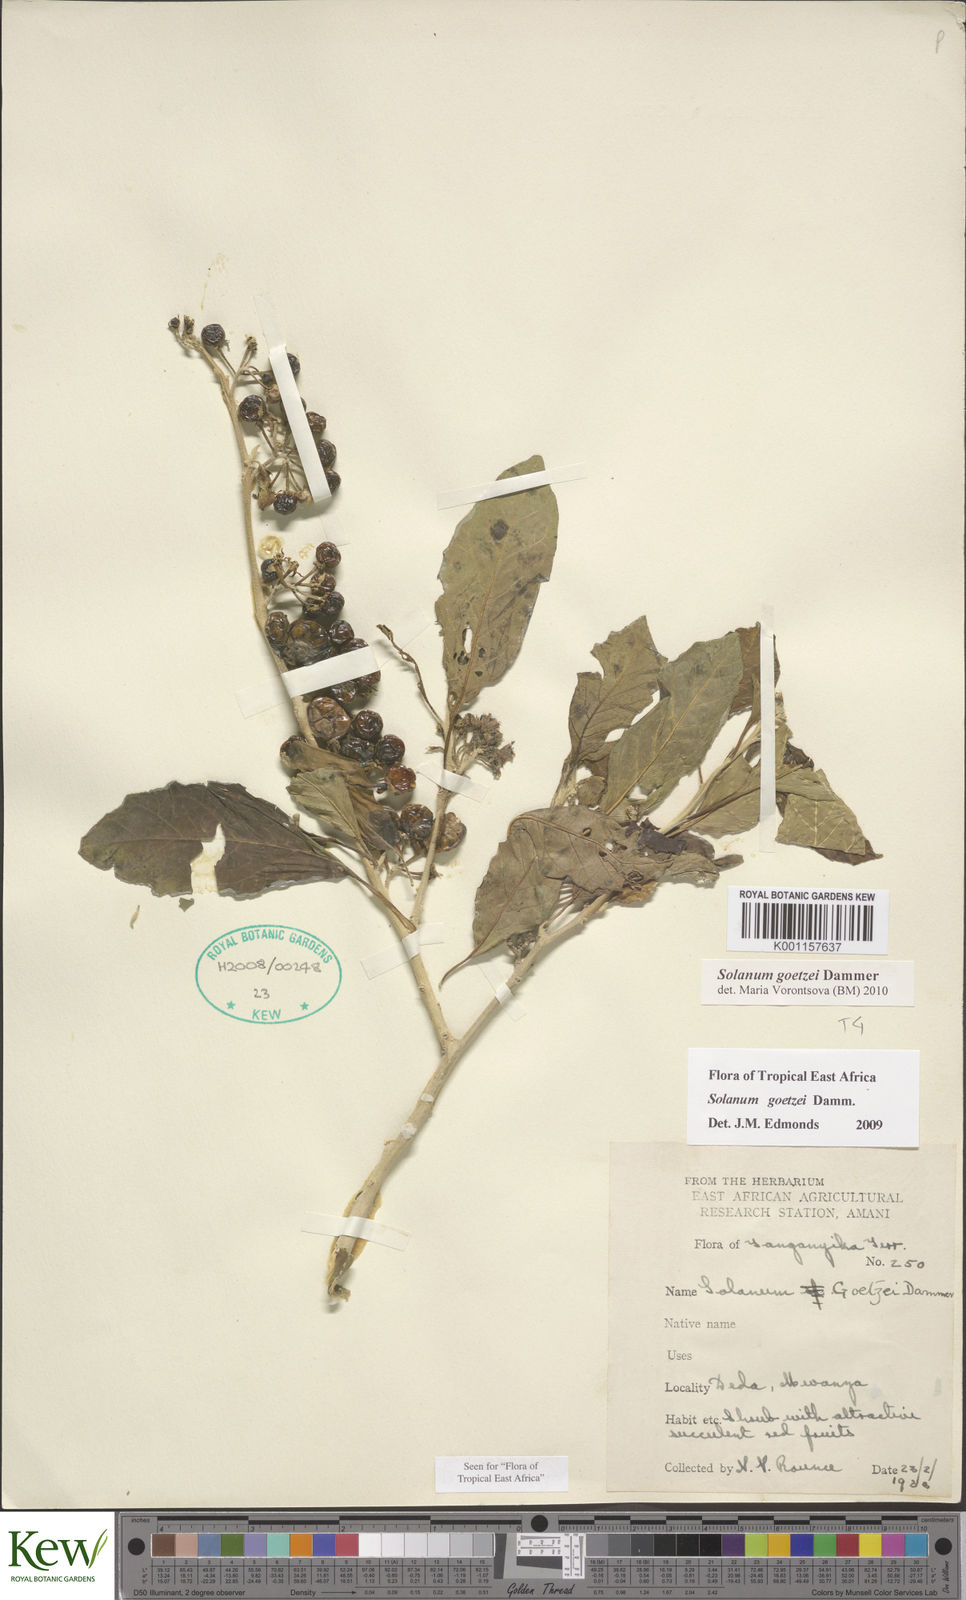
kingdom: Plantae
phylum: Tracheophyta
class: Magnoliopsida
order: Solanales
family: Solanaceae
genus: Solanum
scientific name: Solanum goetzei
